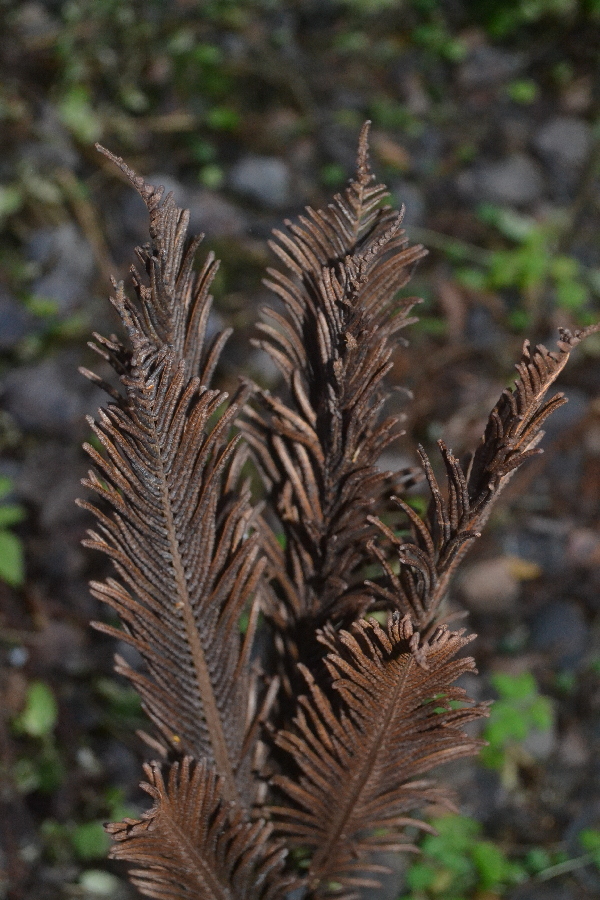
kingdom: Plantae
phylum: Tracheophyta
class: Polypodiopsida
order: Polypodiales
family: Onocleaceae
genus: Matteuccia
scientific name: Matteuccia struthiopteris
